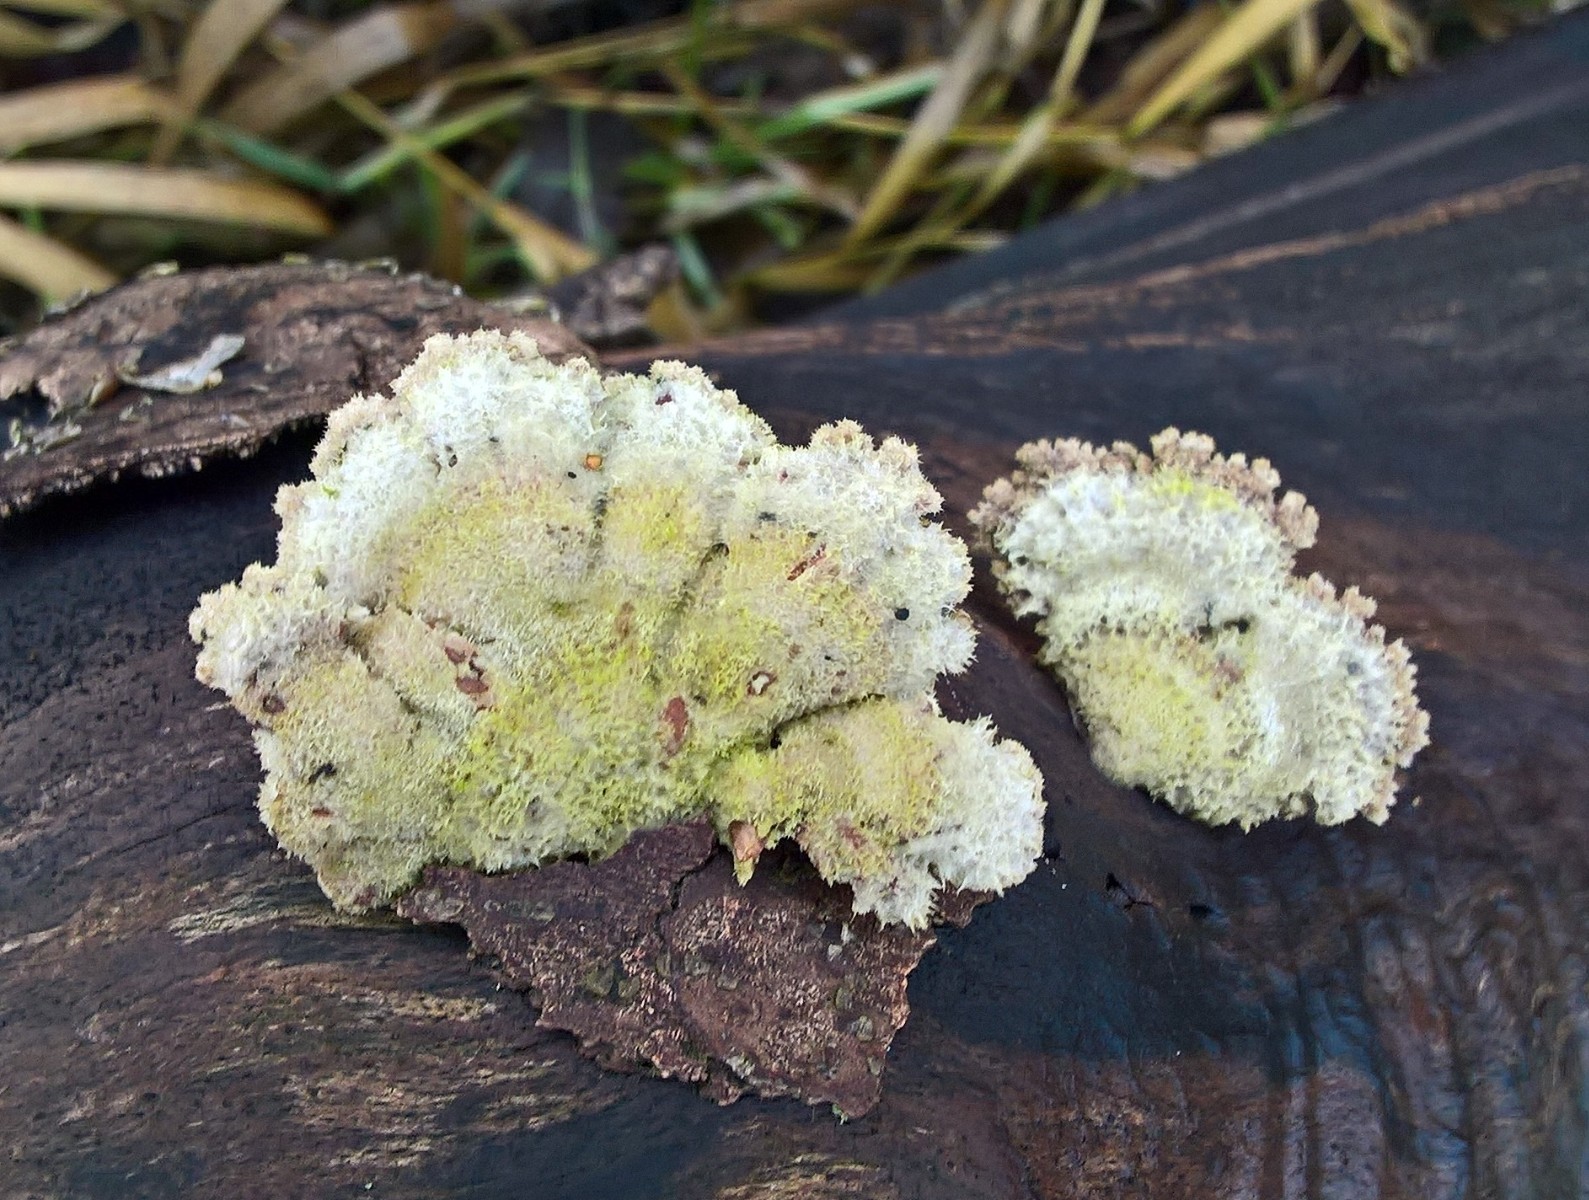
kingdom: Fungi
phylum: Basidiomycota
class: Agaricomycetes
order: Agaricales
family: Schizophyllaceae
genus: Schizophyllum
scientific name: Schizophyllum commune
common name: kløvblad
